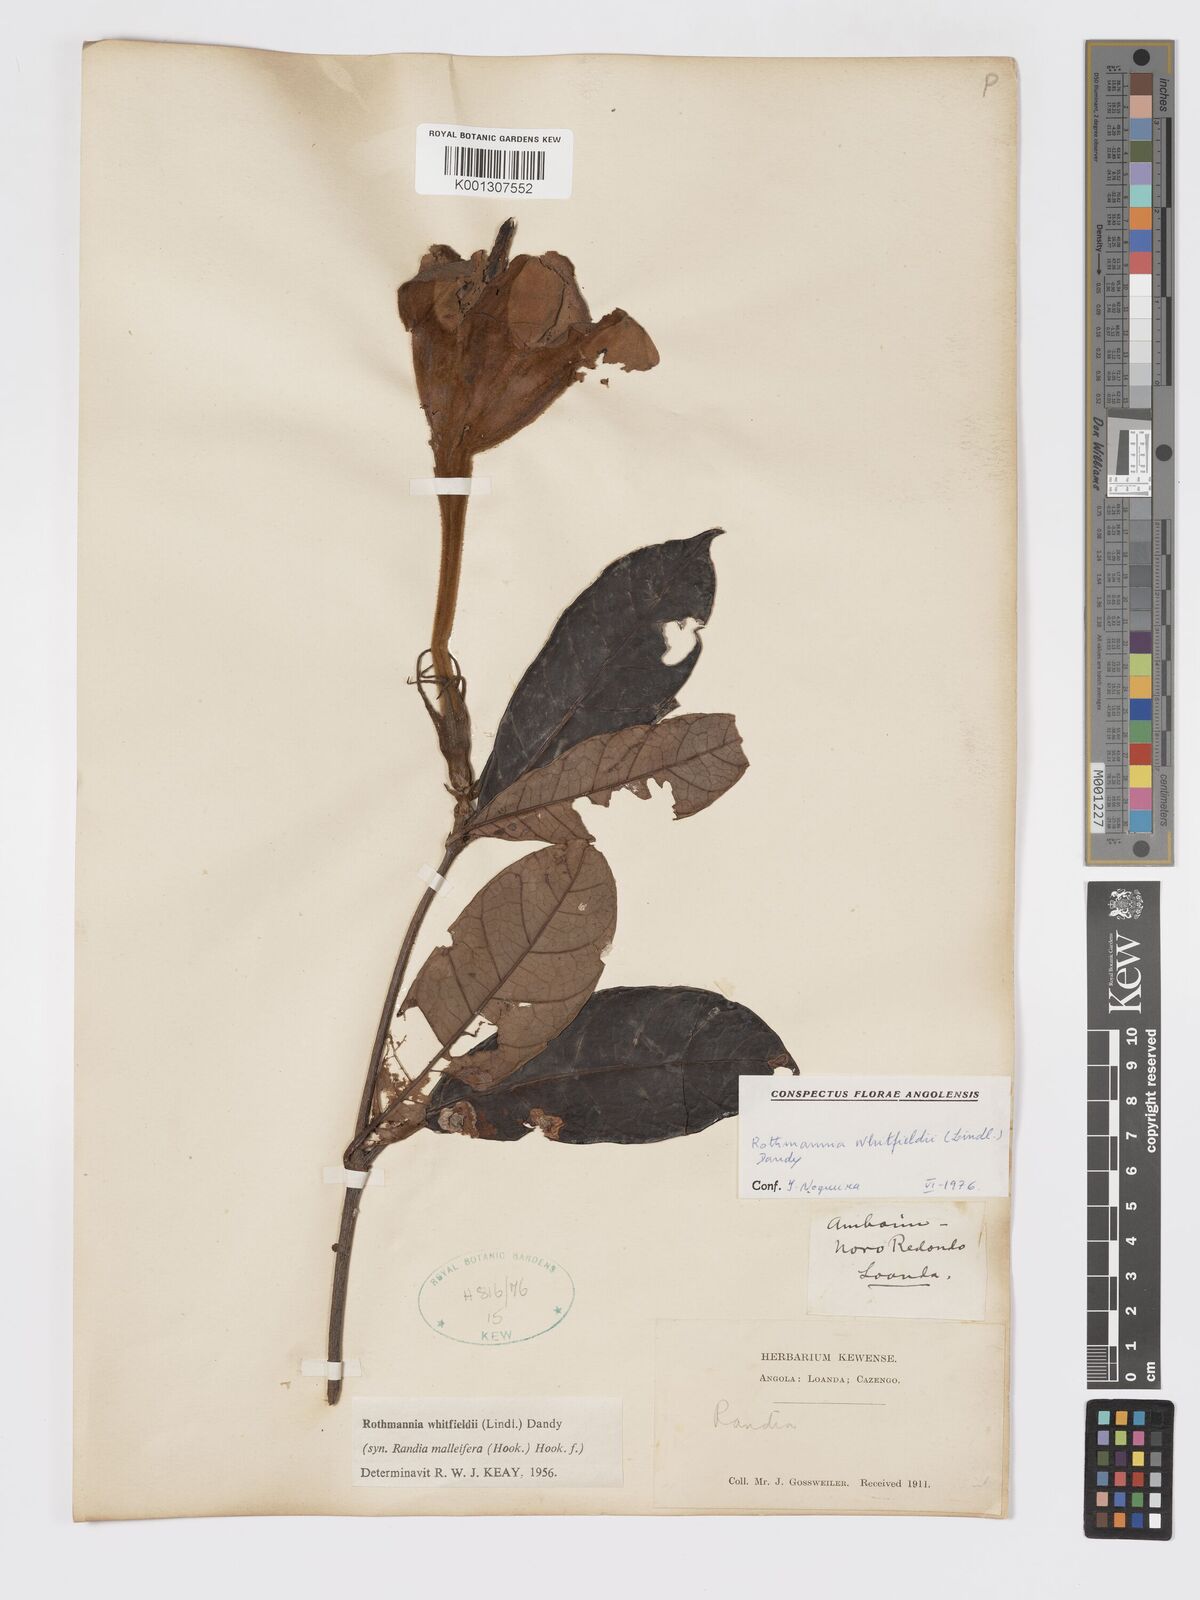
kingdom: Plantae
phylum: Tracheophyta
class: Magnoliopsida
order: Gentianales
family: Rubiaceae
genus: Rothmannia
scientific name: Rothmannia whitfieldii
